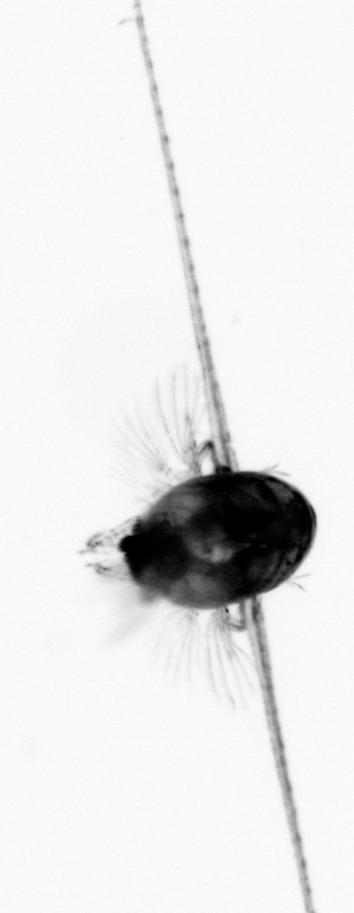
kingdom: Animalia
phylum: Arthropoda
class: Copepoda
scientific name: Copepoda
